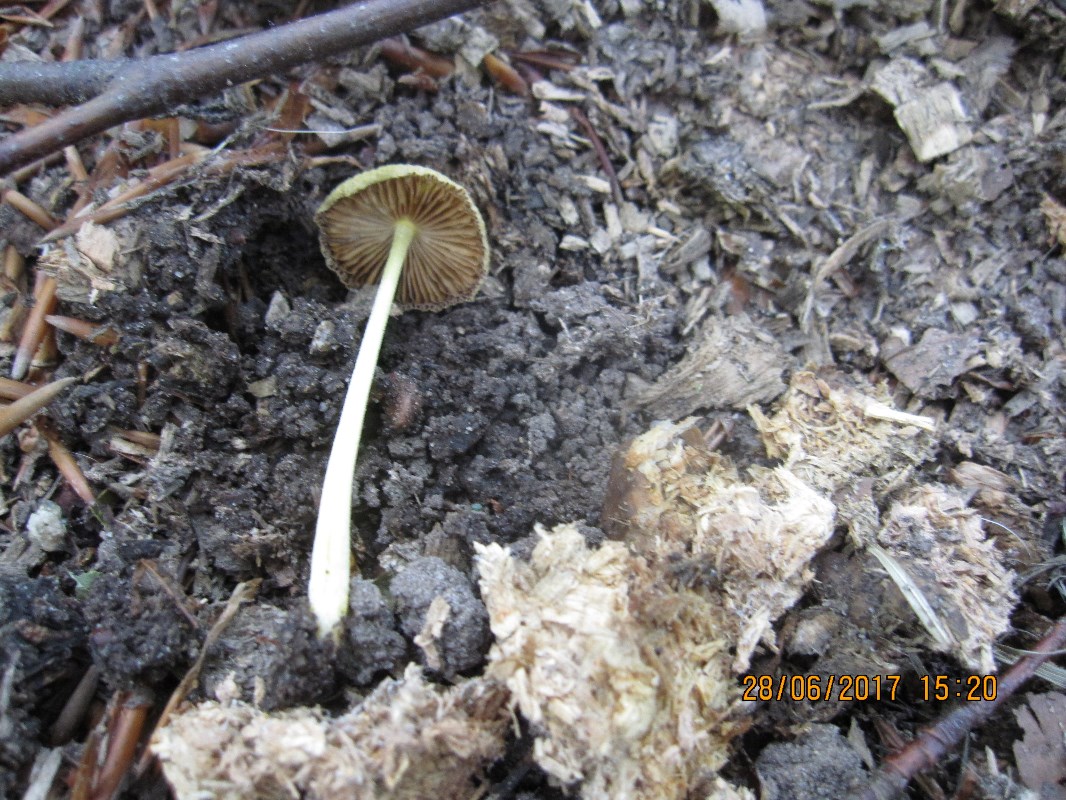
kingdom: Fungi
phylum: Basidiomycota
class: Agaricomycetes
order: Agaricales
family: Bolbitiaceae
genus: Bolbitius
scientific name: Bolbitius titubans
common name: almindelig gulhat
